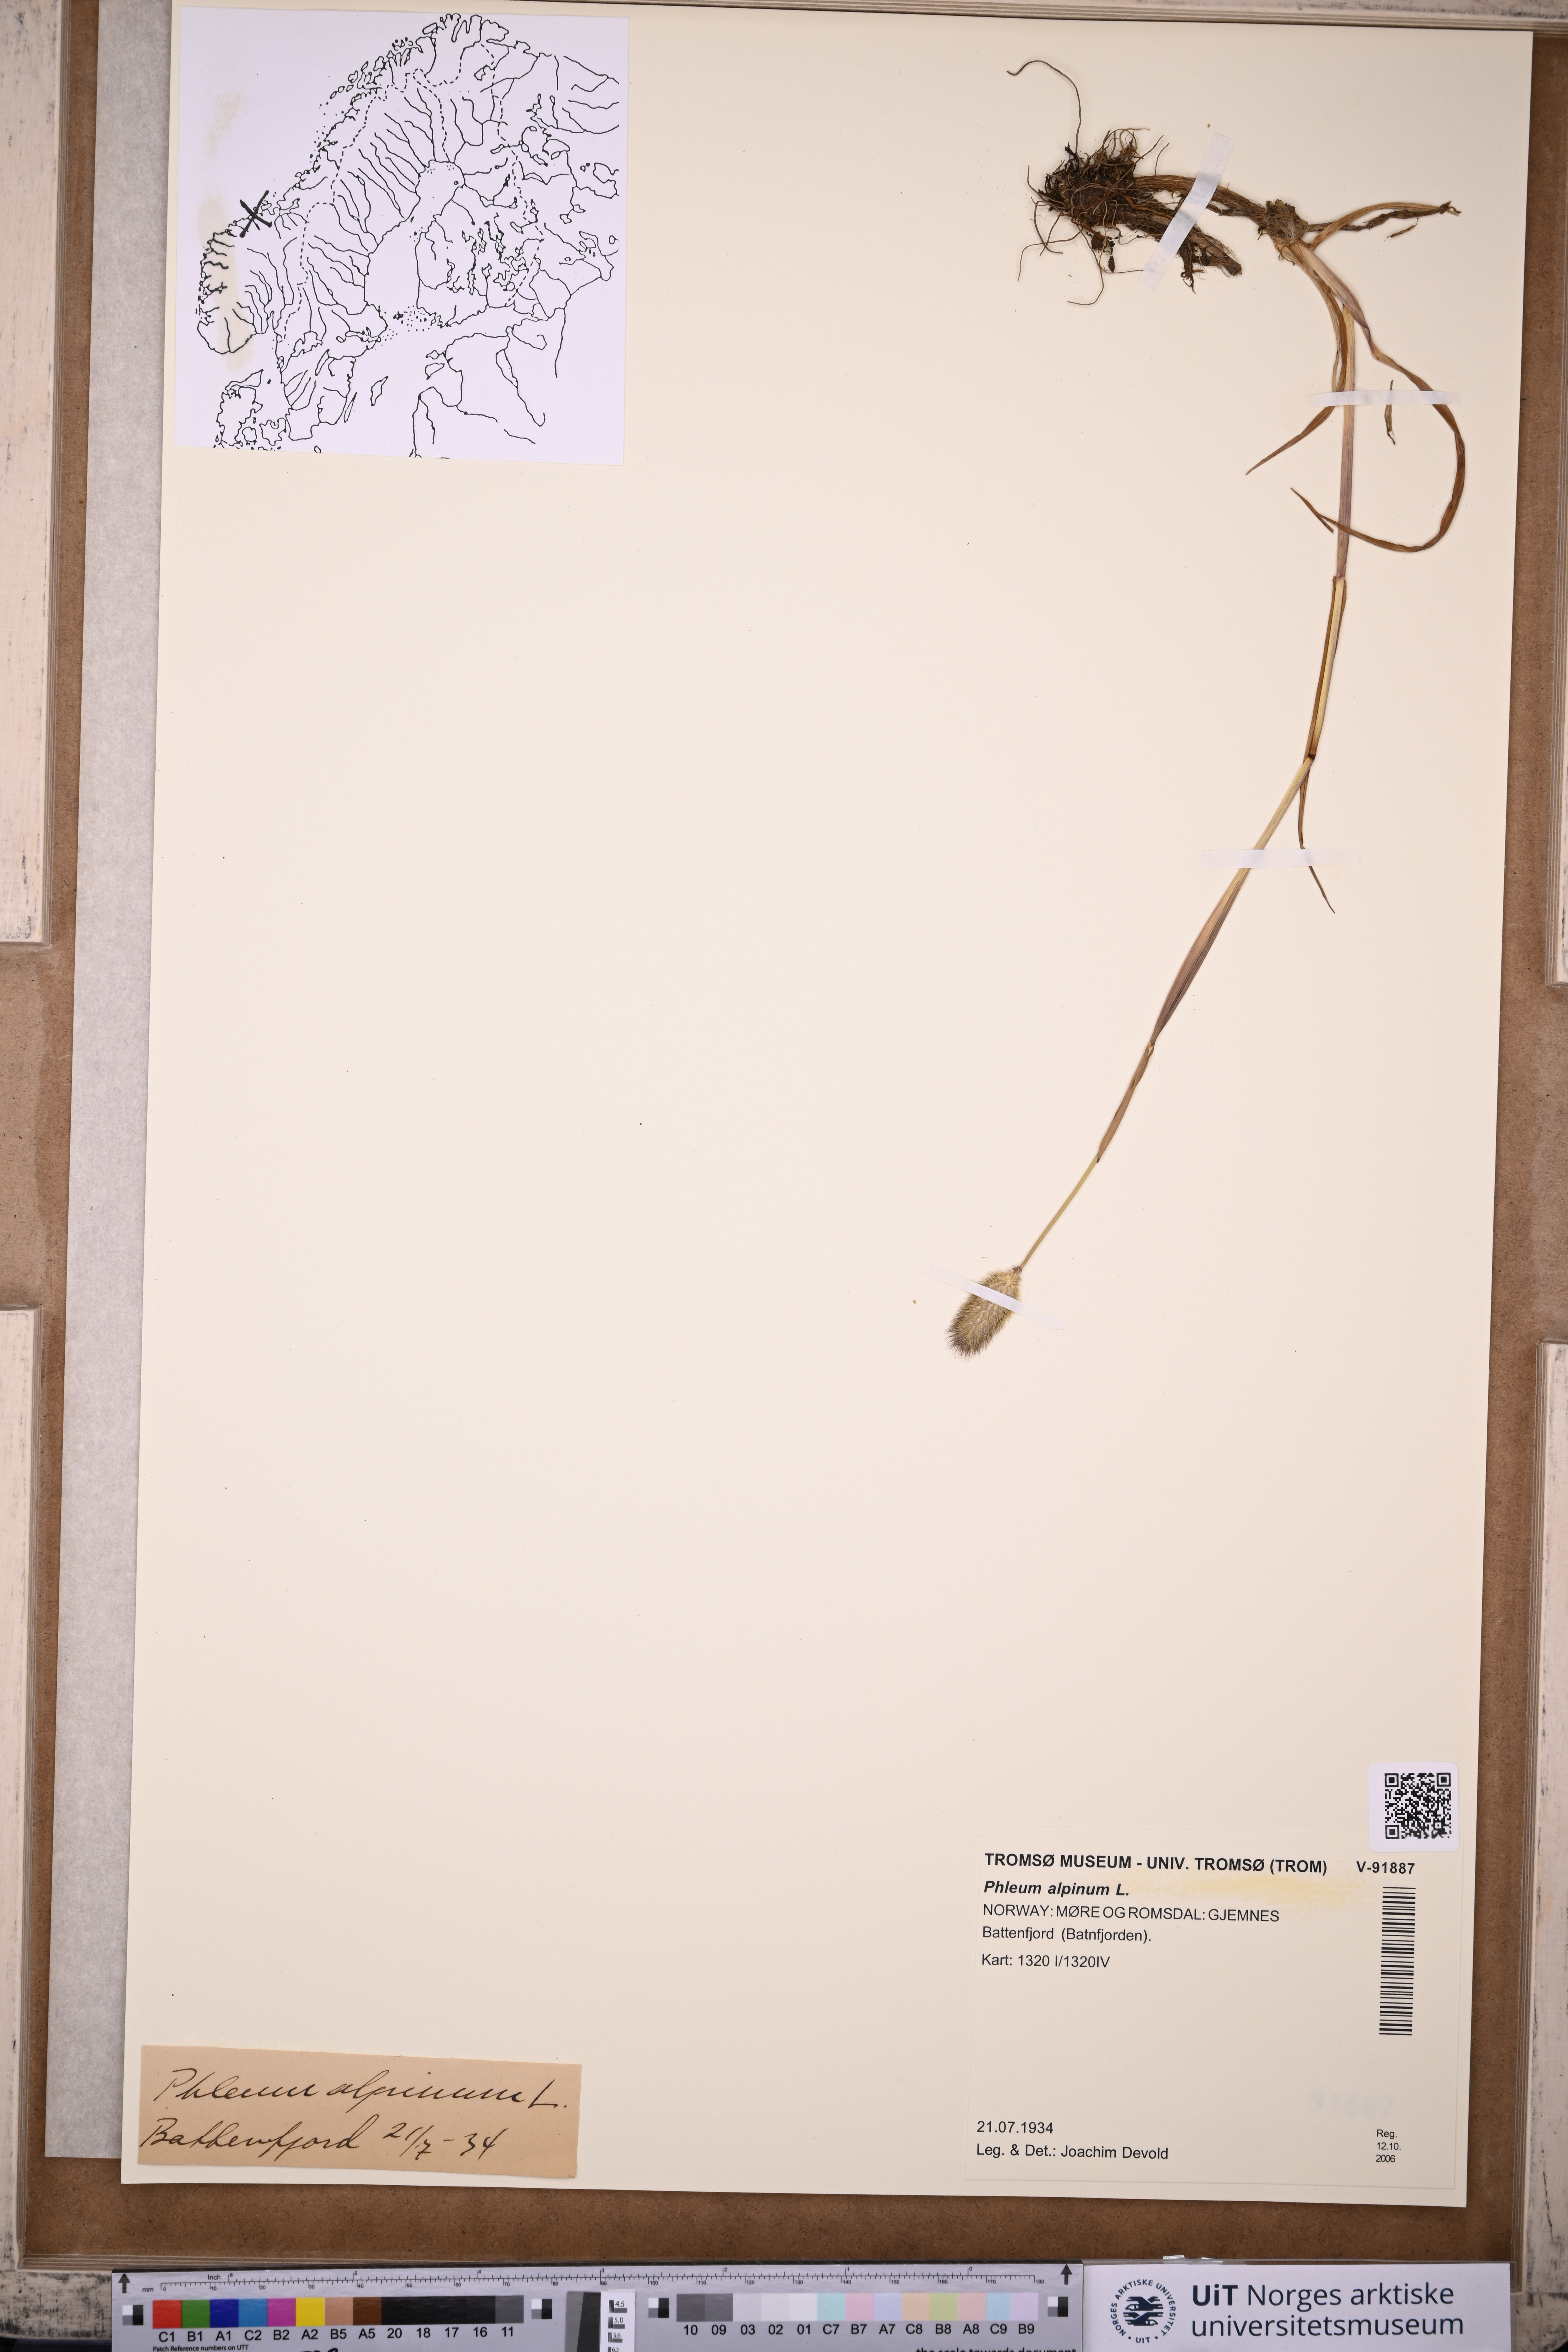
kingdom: Plantae
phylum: Tracheophyta
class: Liliopsida
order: Poales
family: Poaceae
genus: Phleum
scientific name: Phleum alpinum
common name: Alpine cat's-tail
